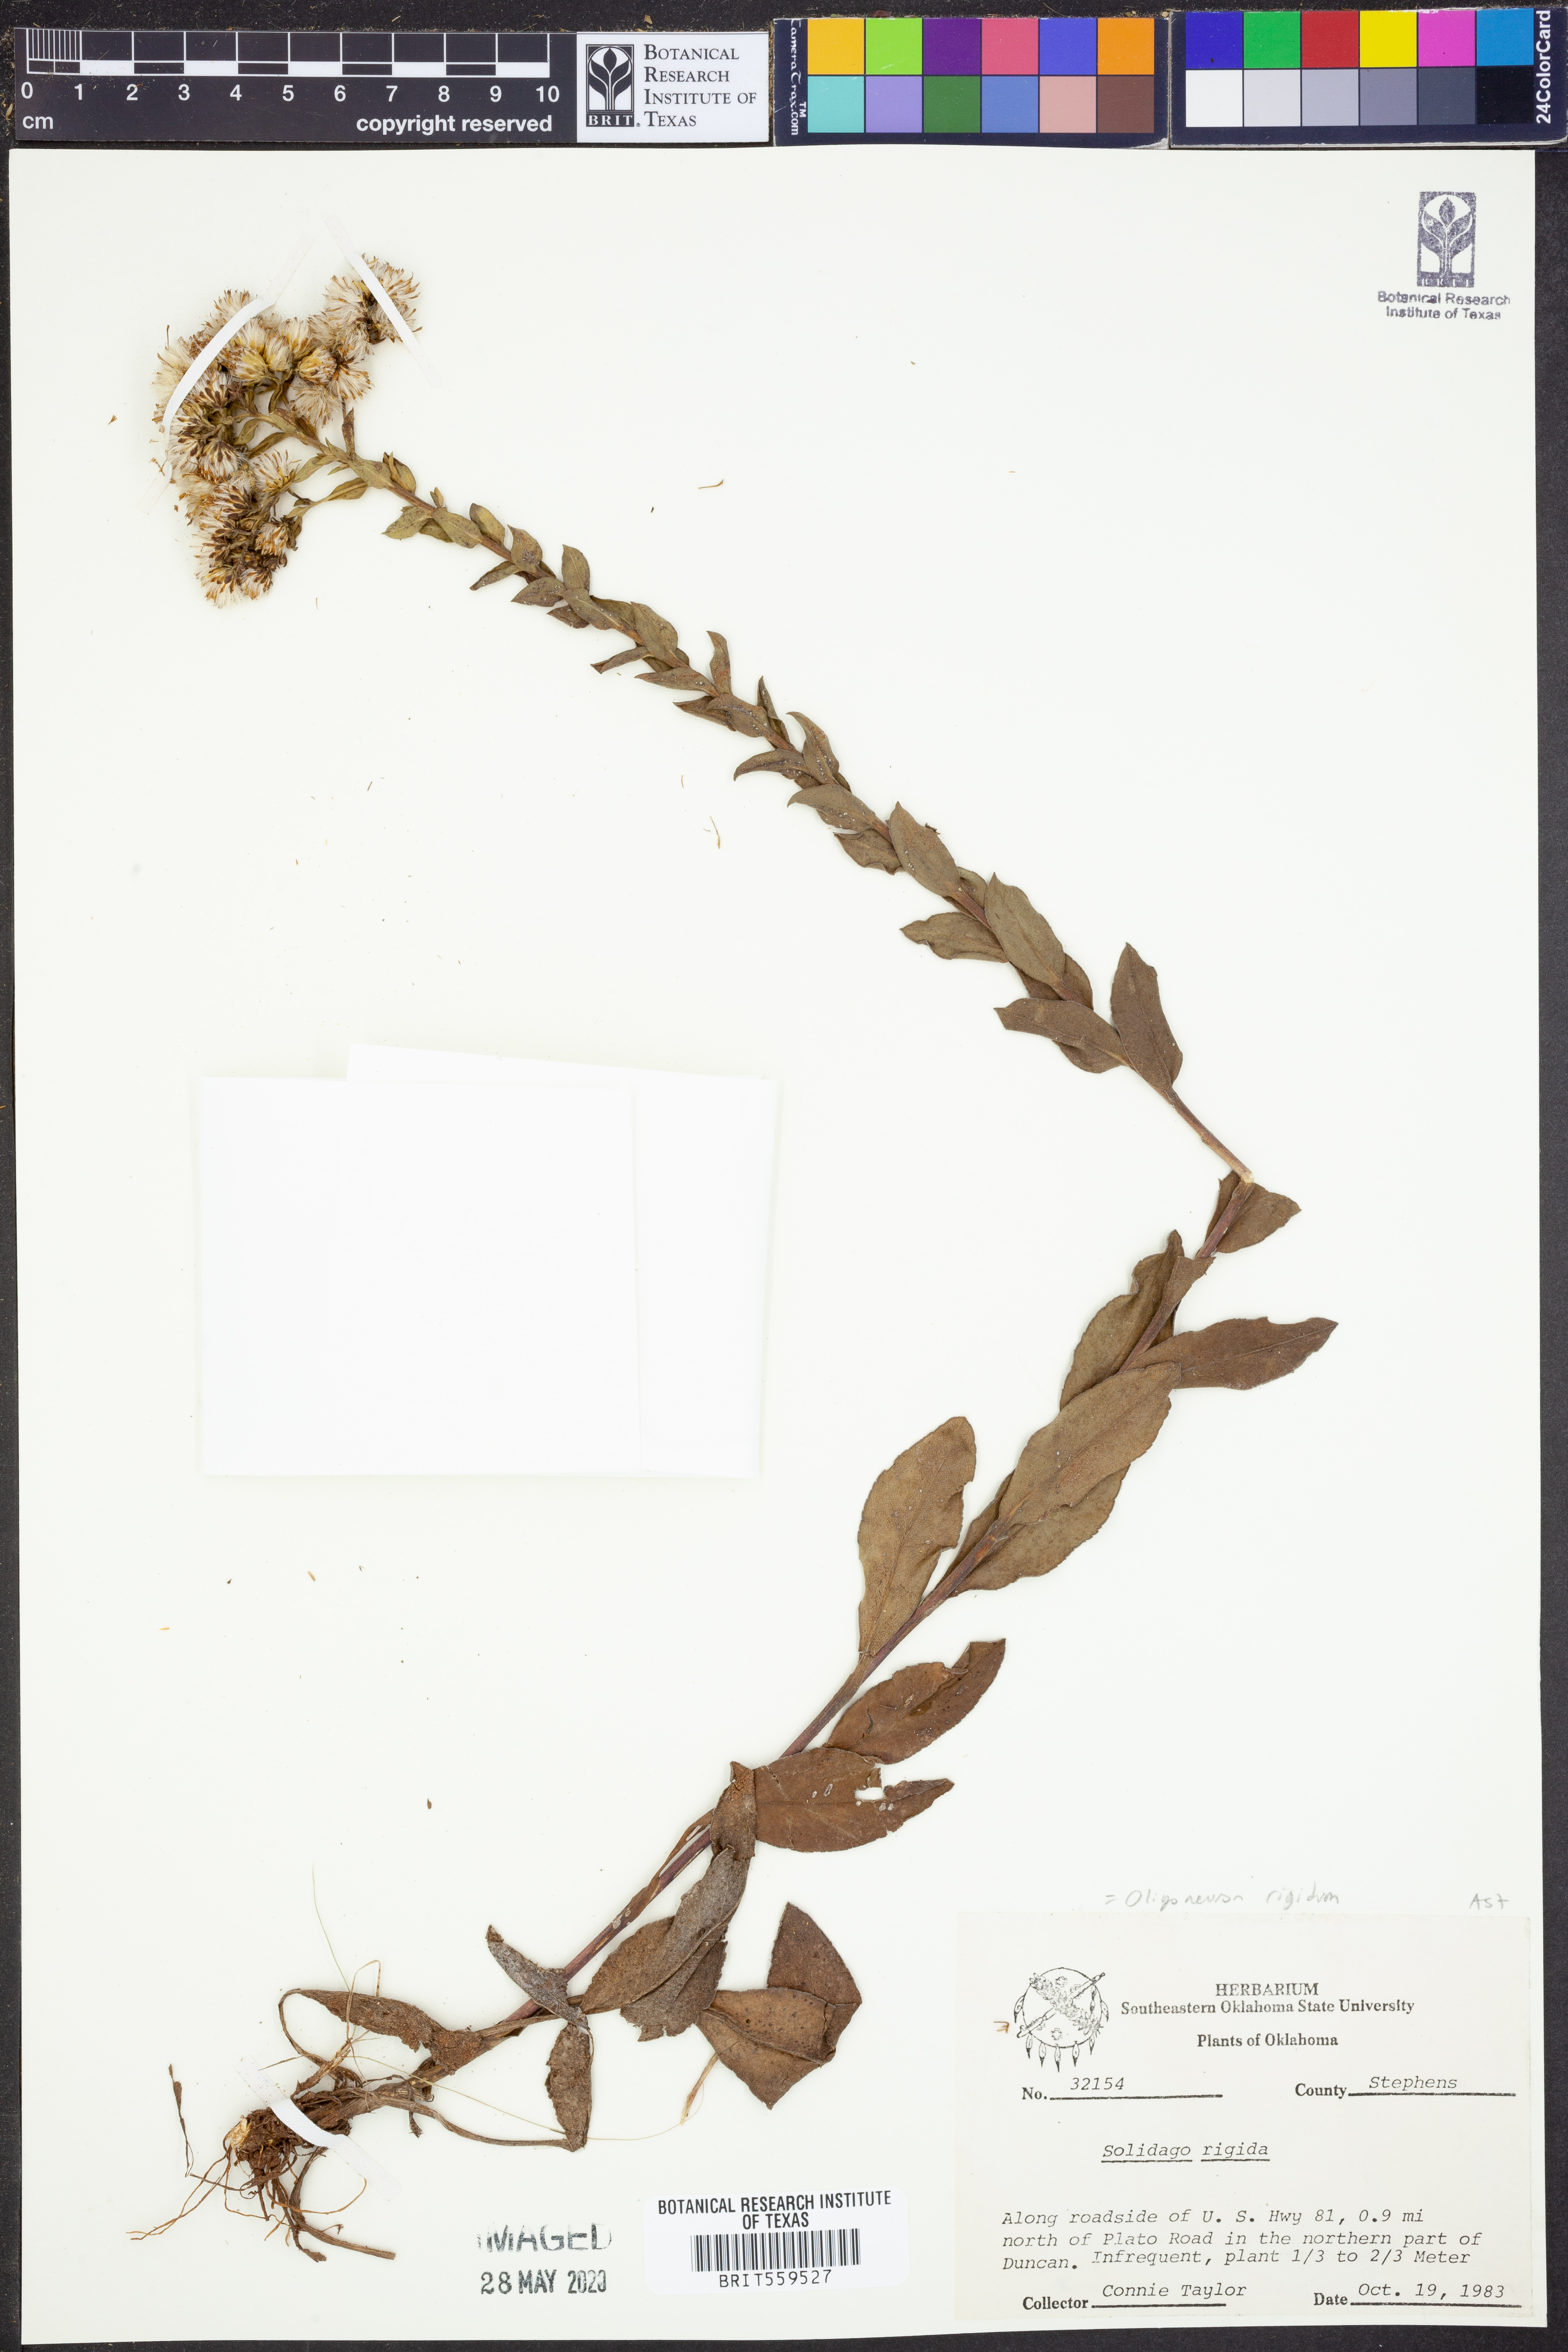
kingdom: Plantae
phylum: Tracheophyta
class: Magnoliopsida
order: Asterales
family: Asteraceae
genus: Solidago
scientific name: Solidago rigida
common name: Rigid goldenrod
